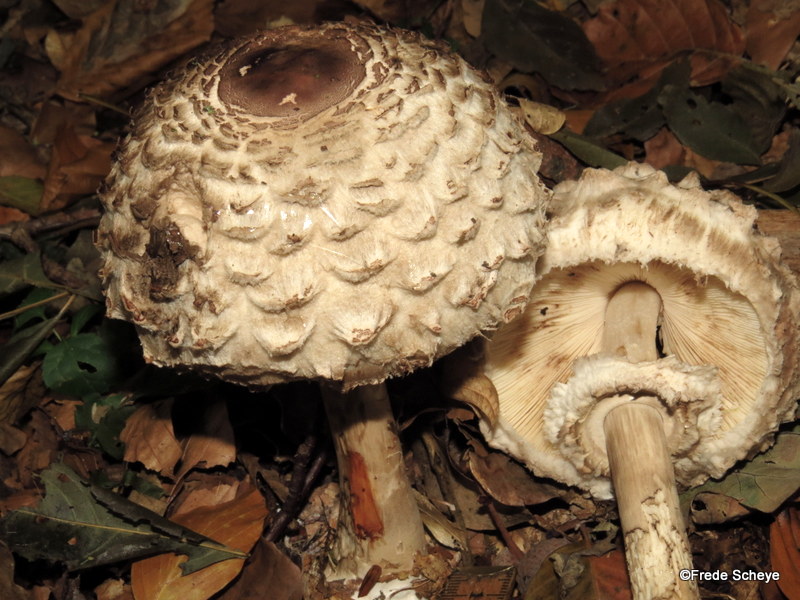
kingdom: Fungi
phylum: Basidiomycota
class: Agaricomycetes
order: Agaricales
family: Agaricaceae
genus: Chlorophyllum
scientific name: Chlorophyllum rhacodes
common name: ægte rabarberhat
